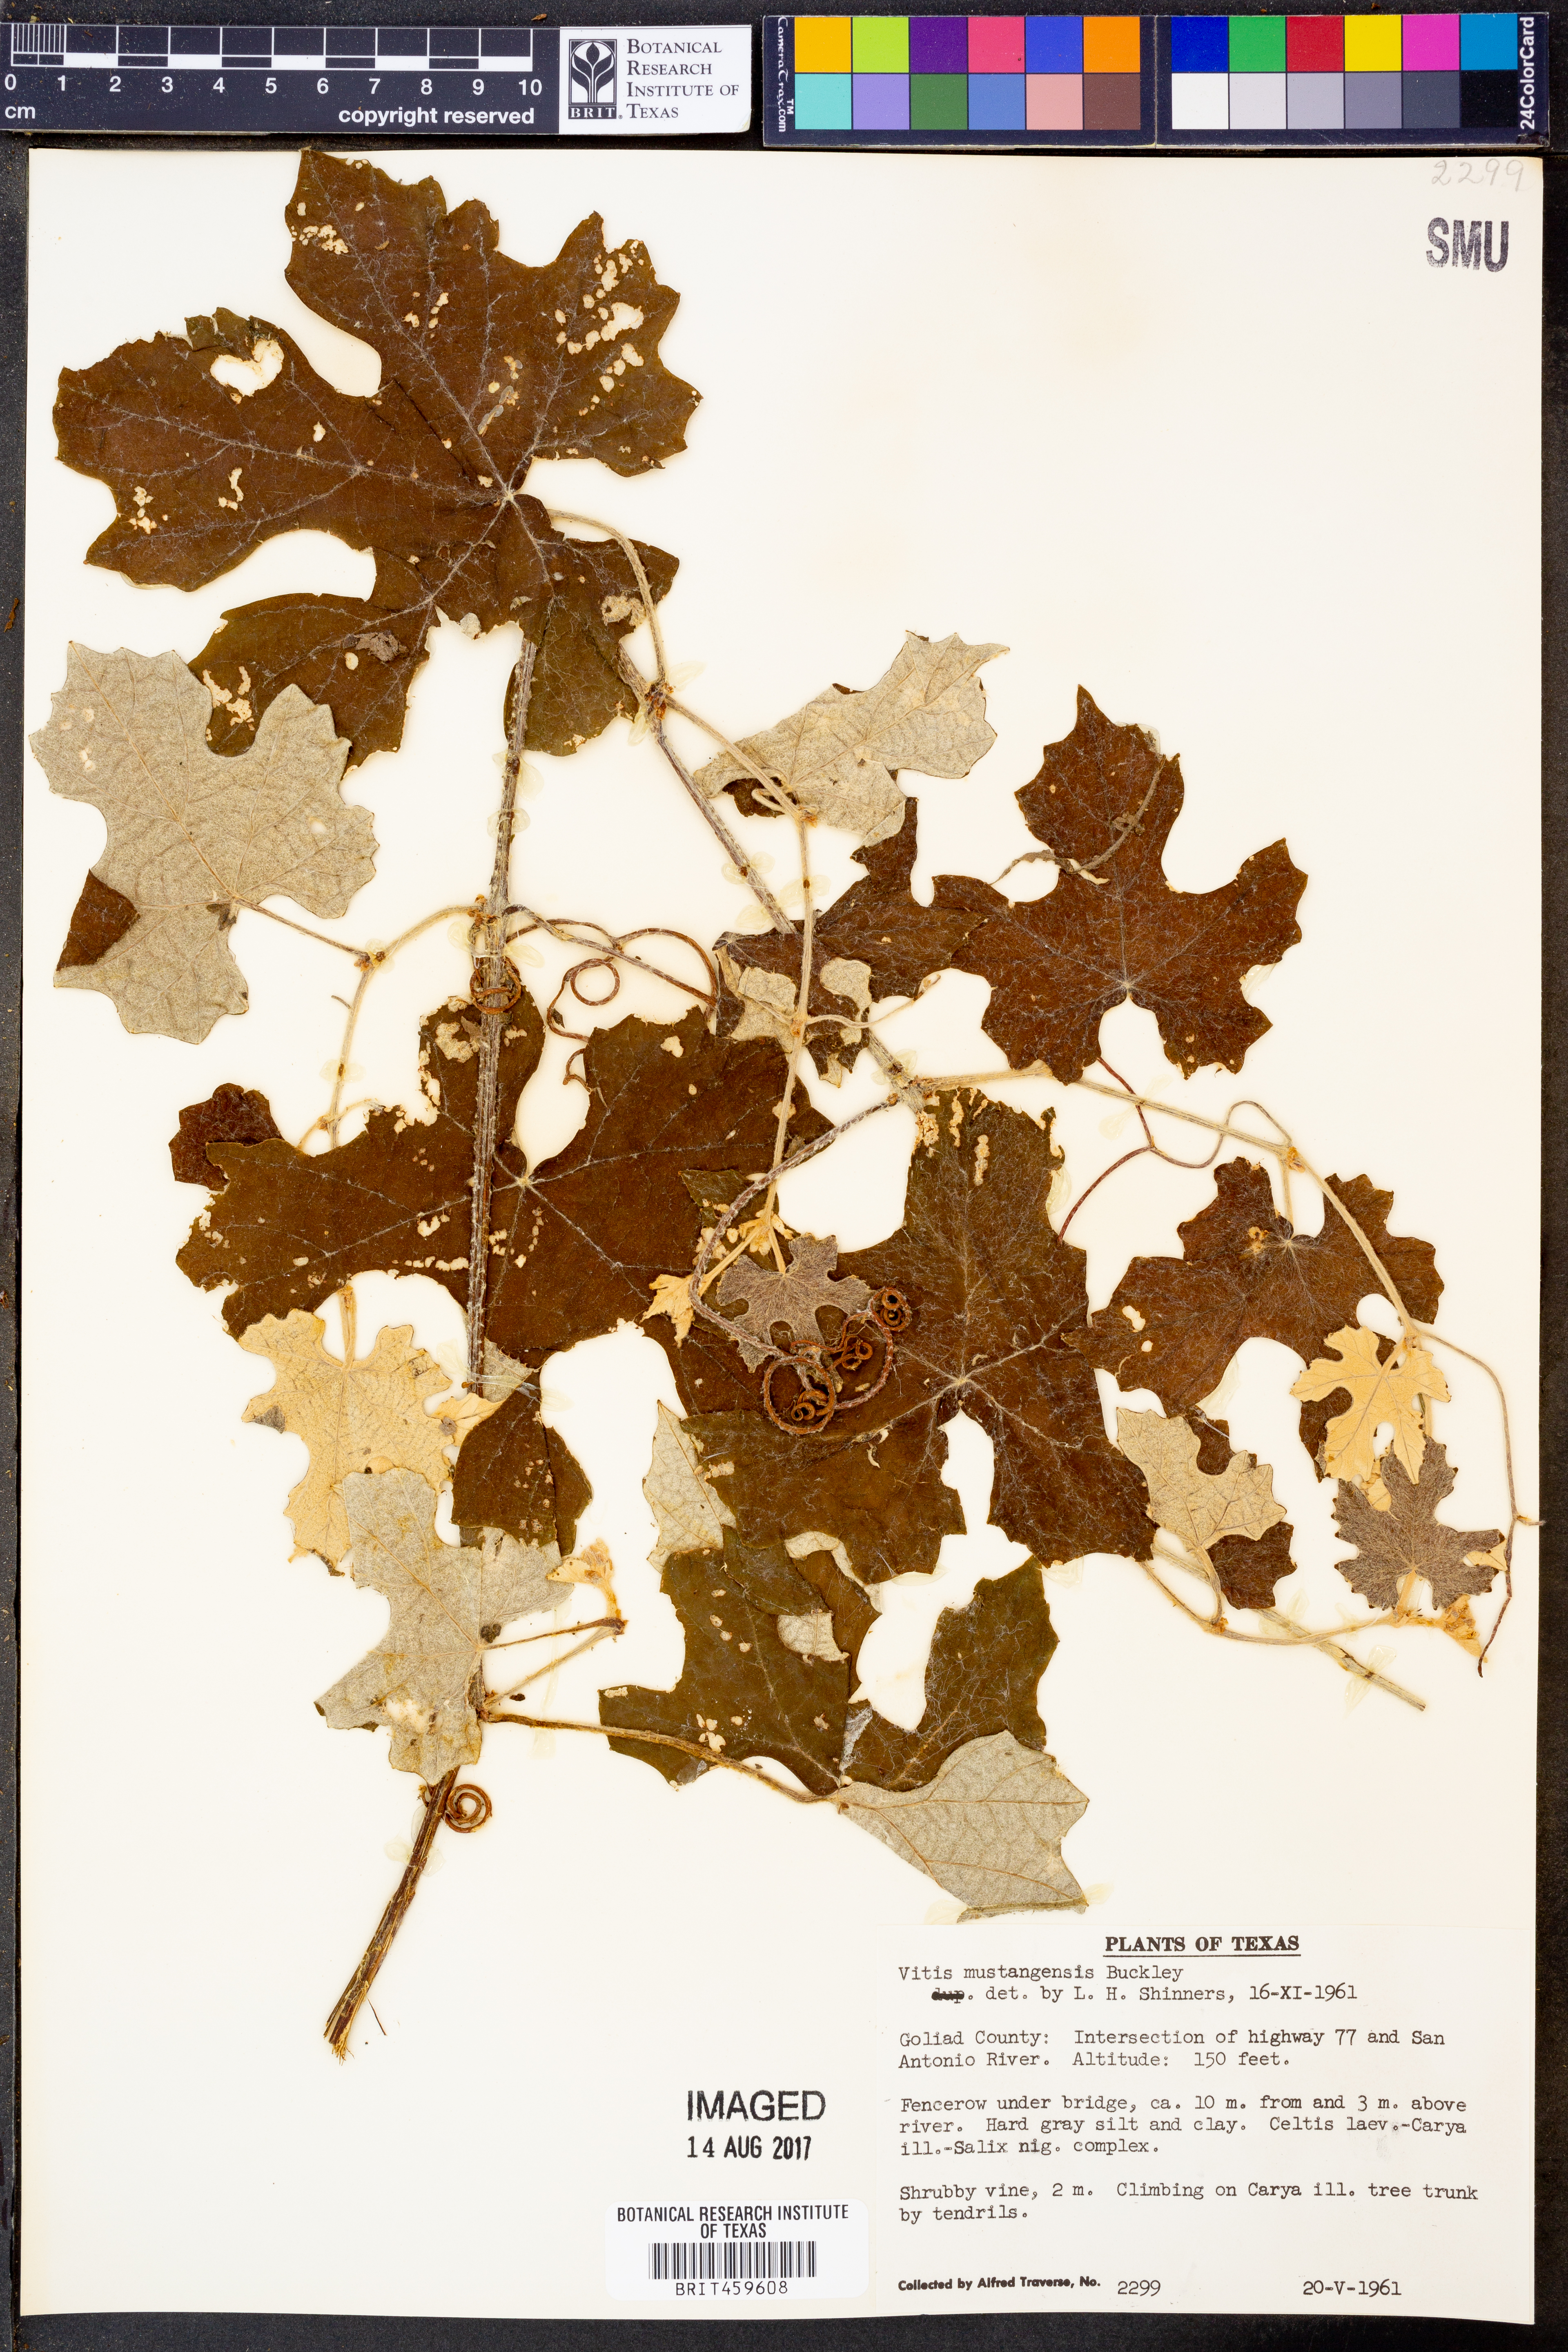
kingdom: Plantae
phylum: Tracheophyta
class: Magnoliopsida
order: Vitales
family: Vitaceae
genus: Vitis
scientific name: Vitis mustangensis
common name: Mustang grape
